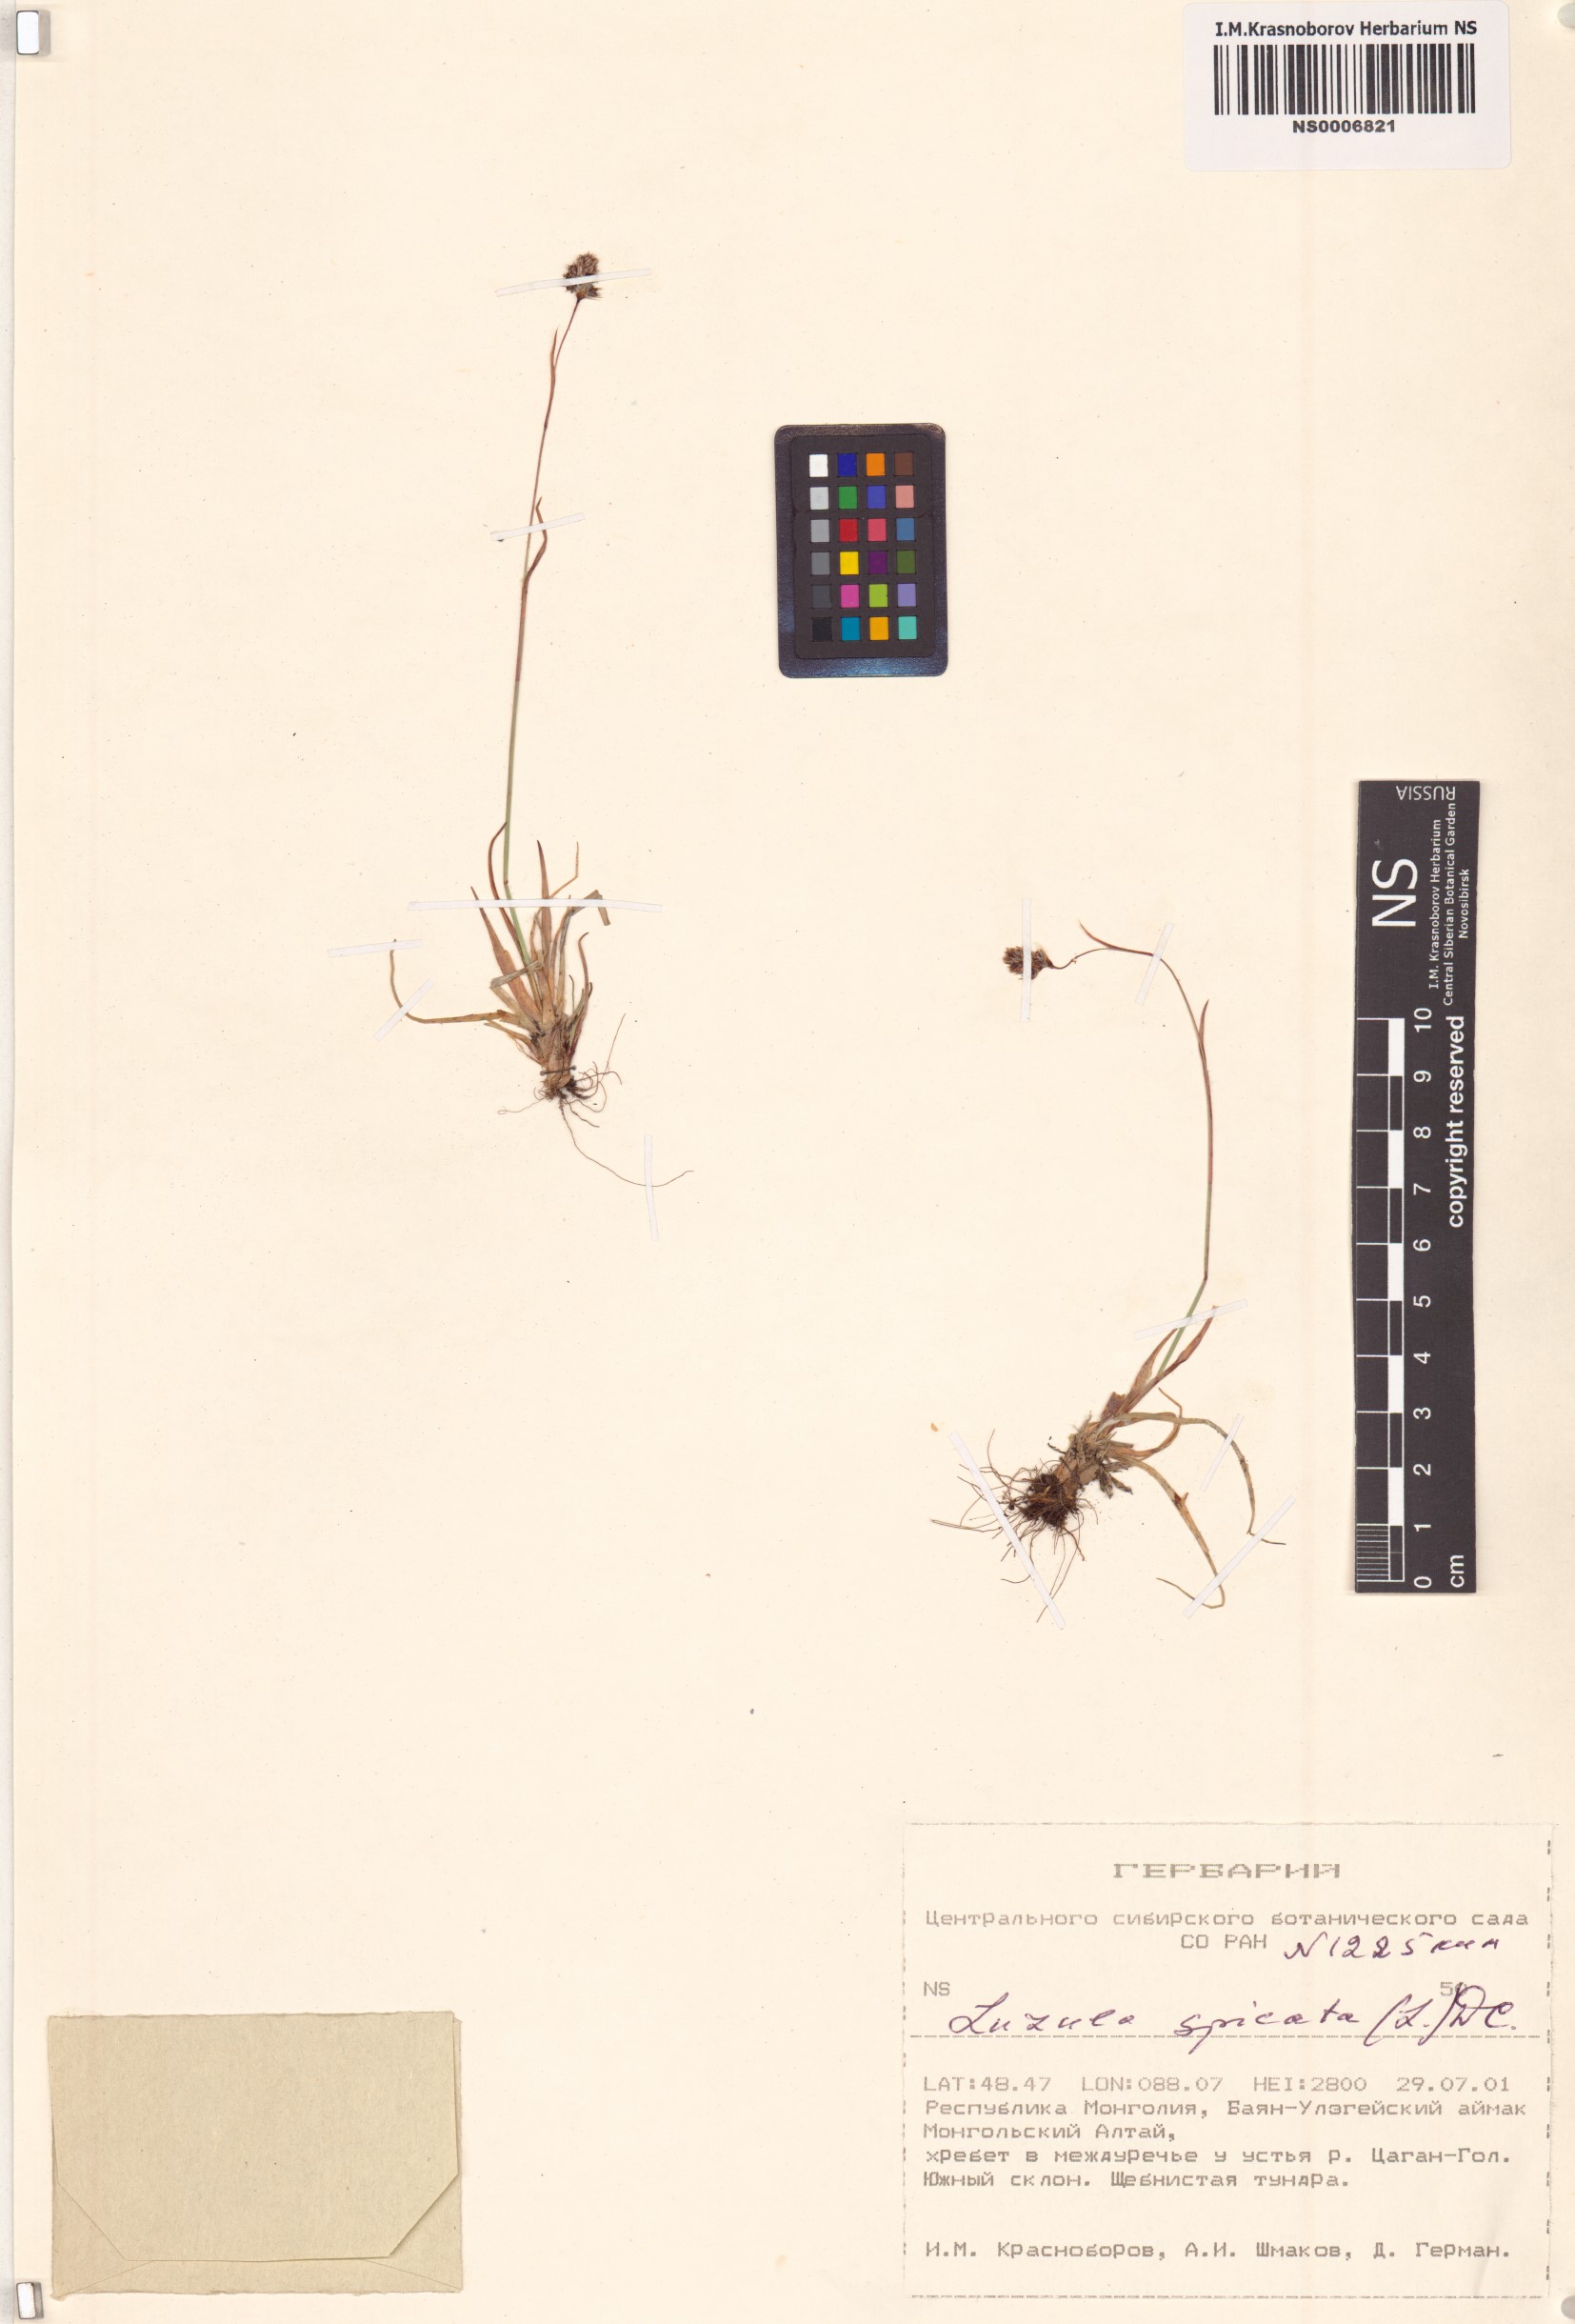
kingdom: Plantae
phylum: Tracheophyta
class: Liliopsida
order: Poales
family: Juncaceae
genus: Luzula
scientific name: Luzula spicata
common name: Spiked wood-rush
